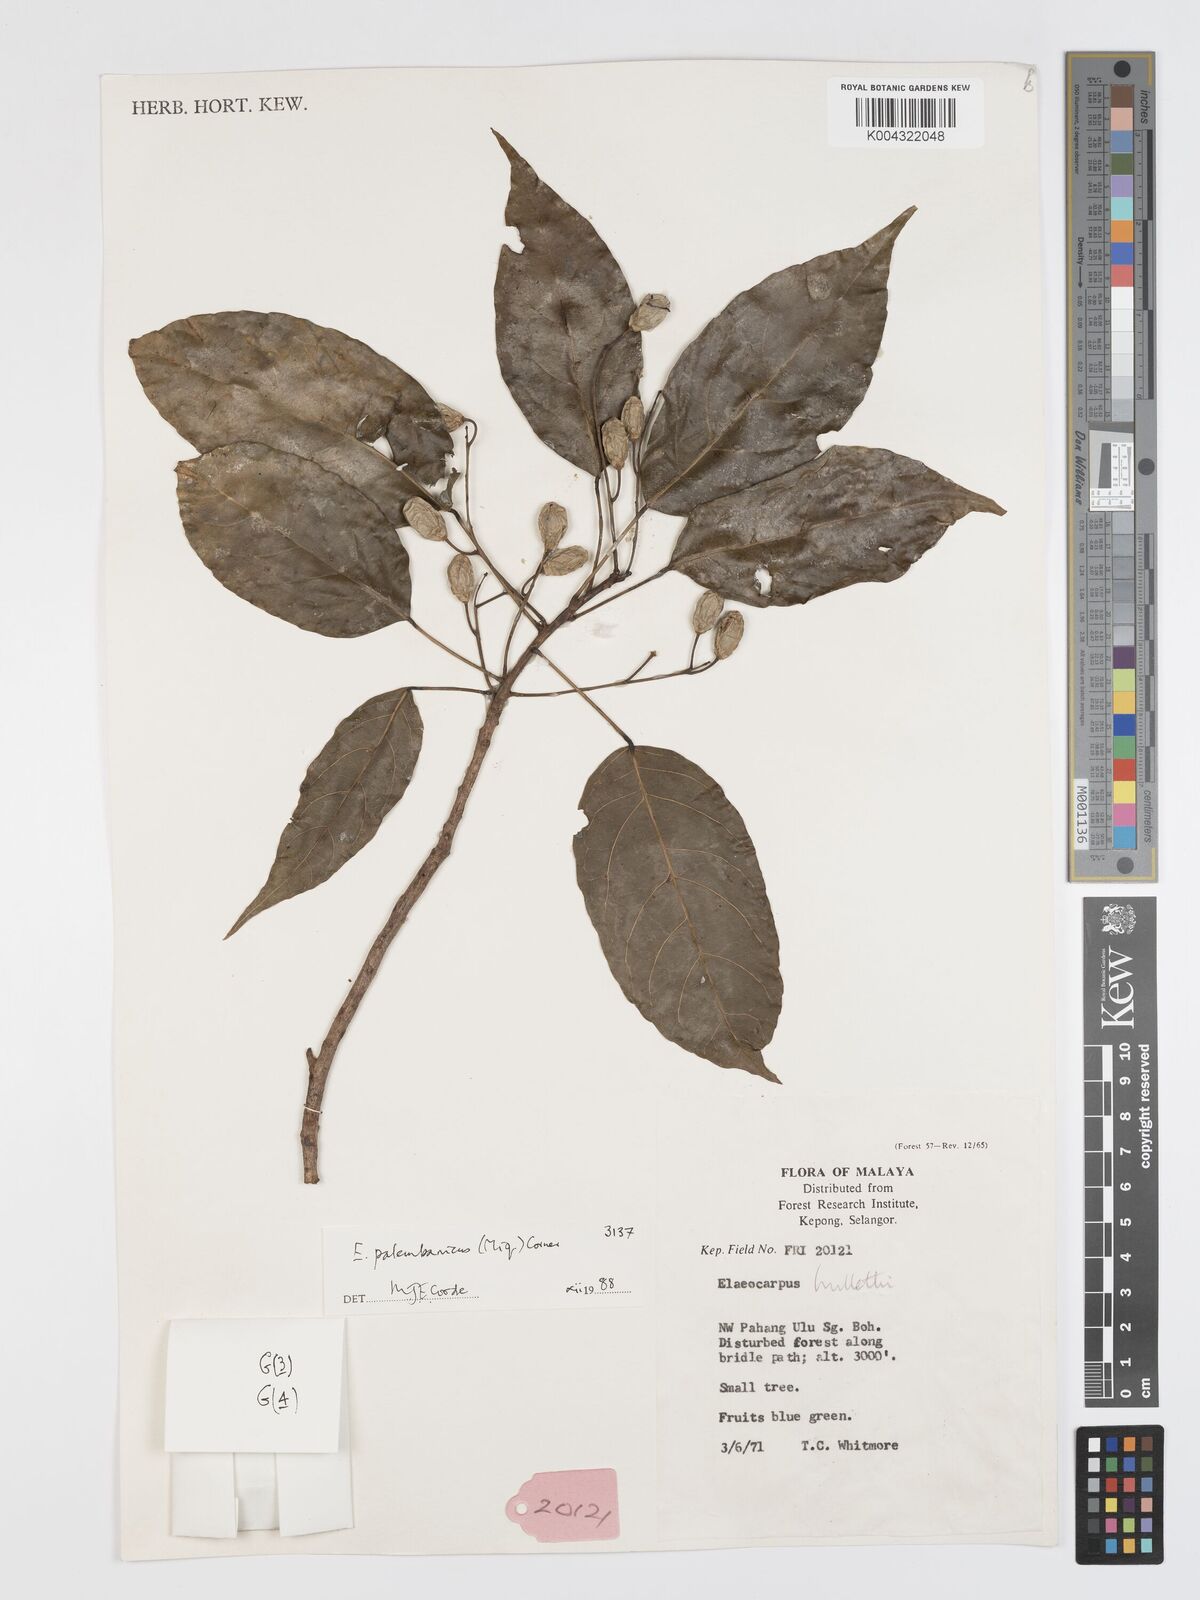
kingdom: Plantae
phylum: Tracheophyta
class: Magnoliopsida
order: Oxalidales
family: Elaeocarpaceae
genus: Elaeocarpus
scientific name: Elaeocarpus palembanicus
